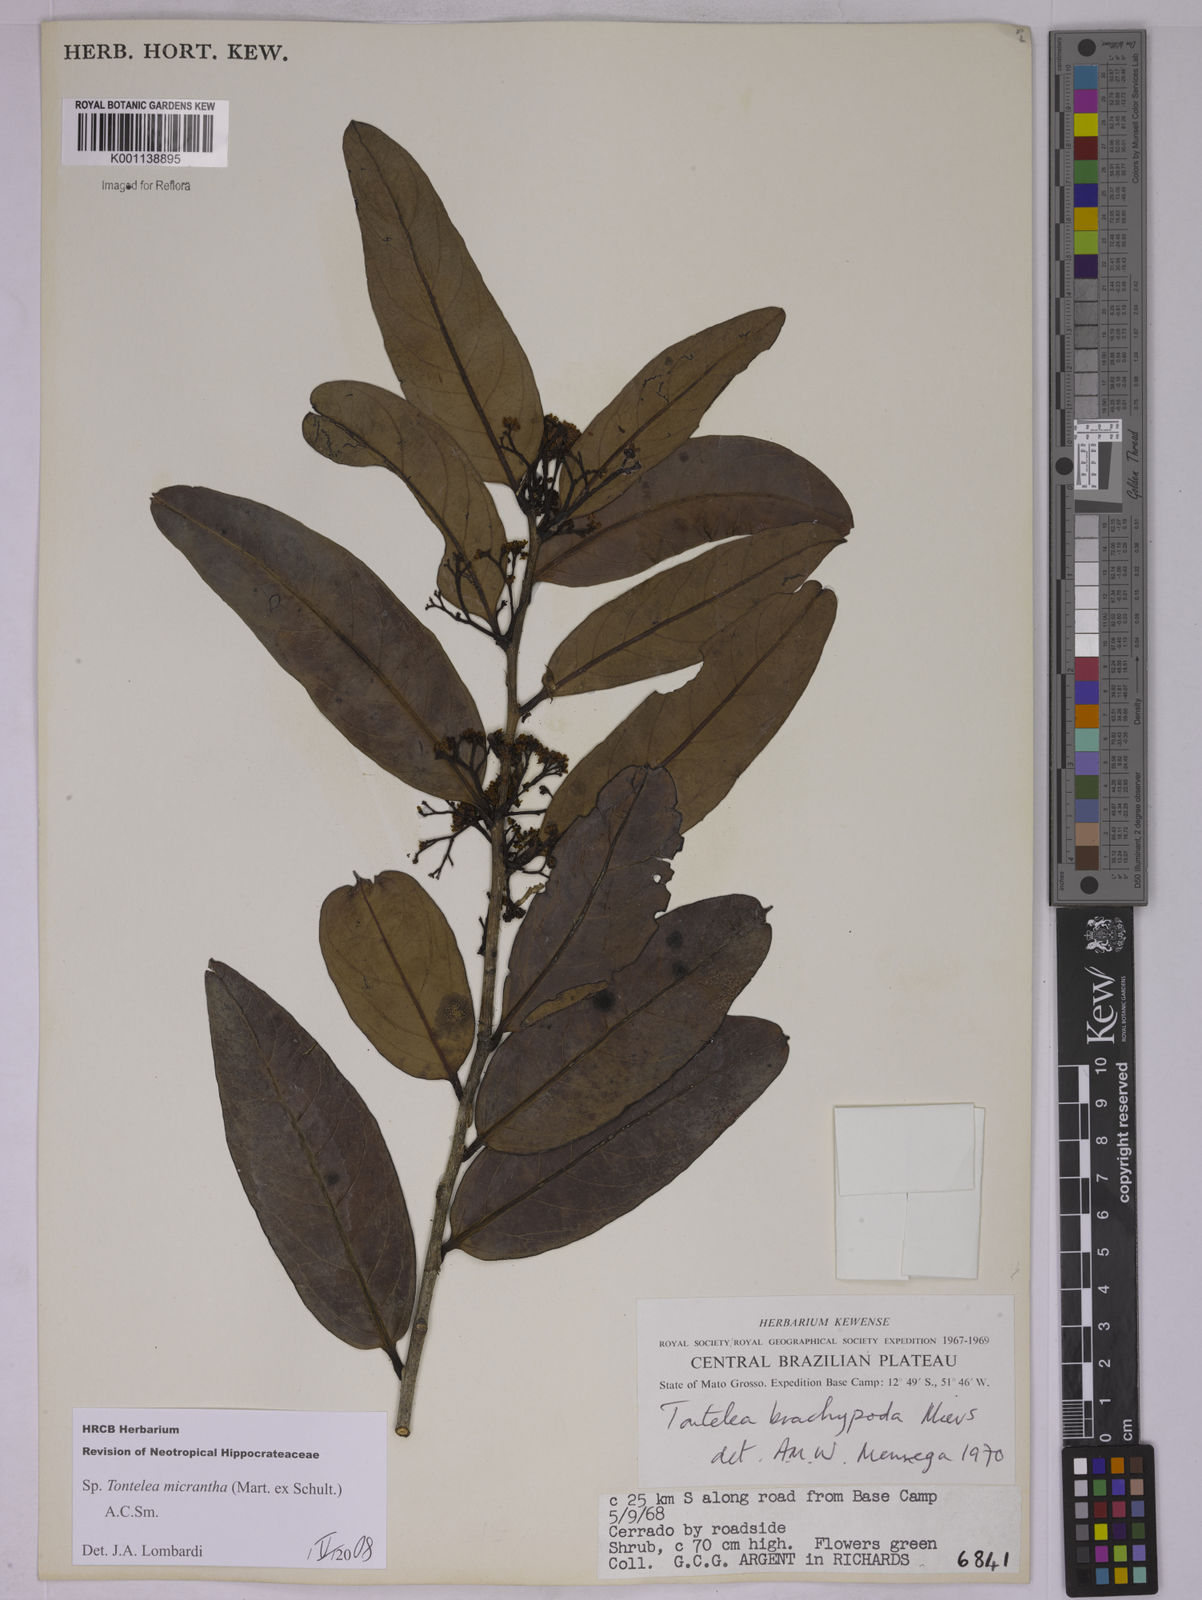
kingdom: Plantae
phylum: Tracheophyta
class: Magnoliopsida
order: Celastrales
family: Celastraceae
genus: Tontelea
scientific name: Tontelea micrantha
